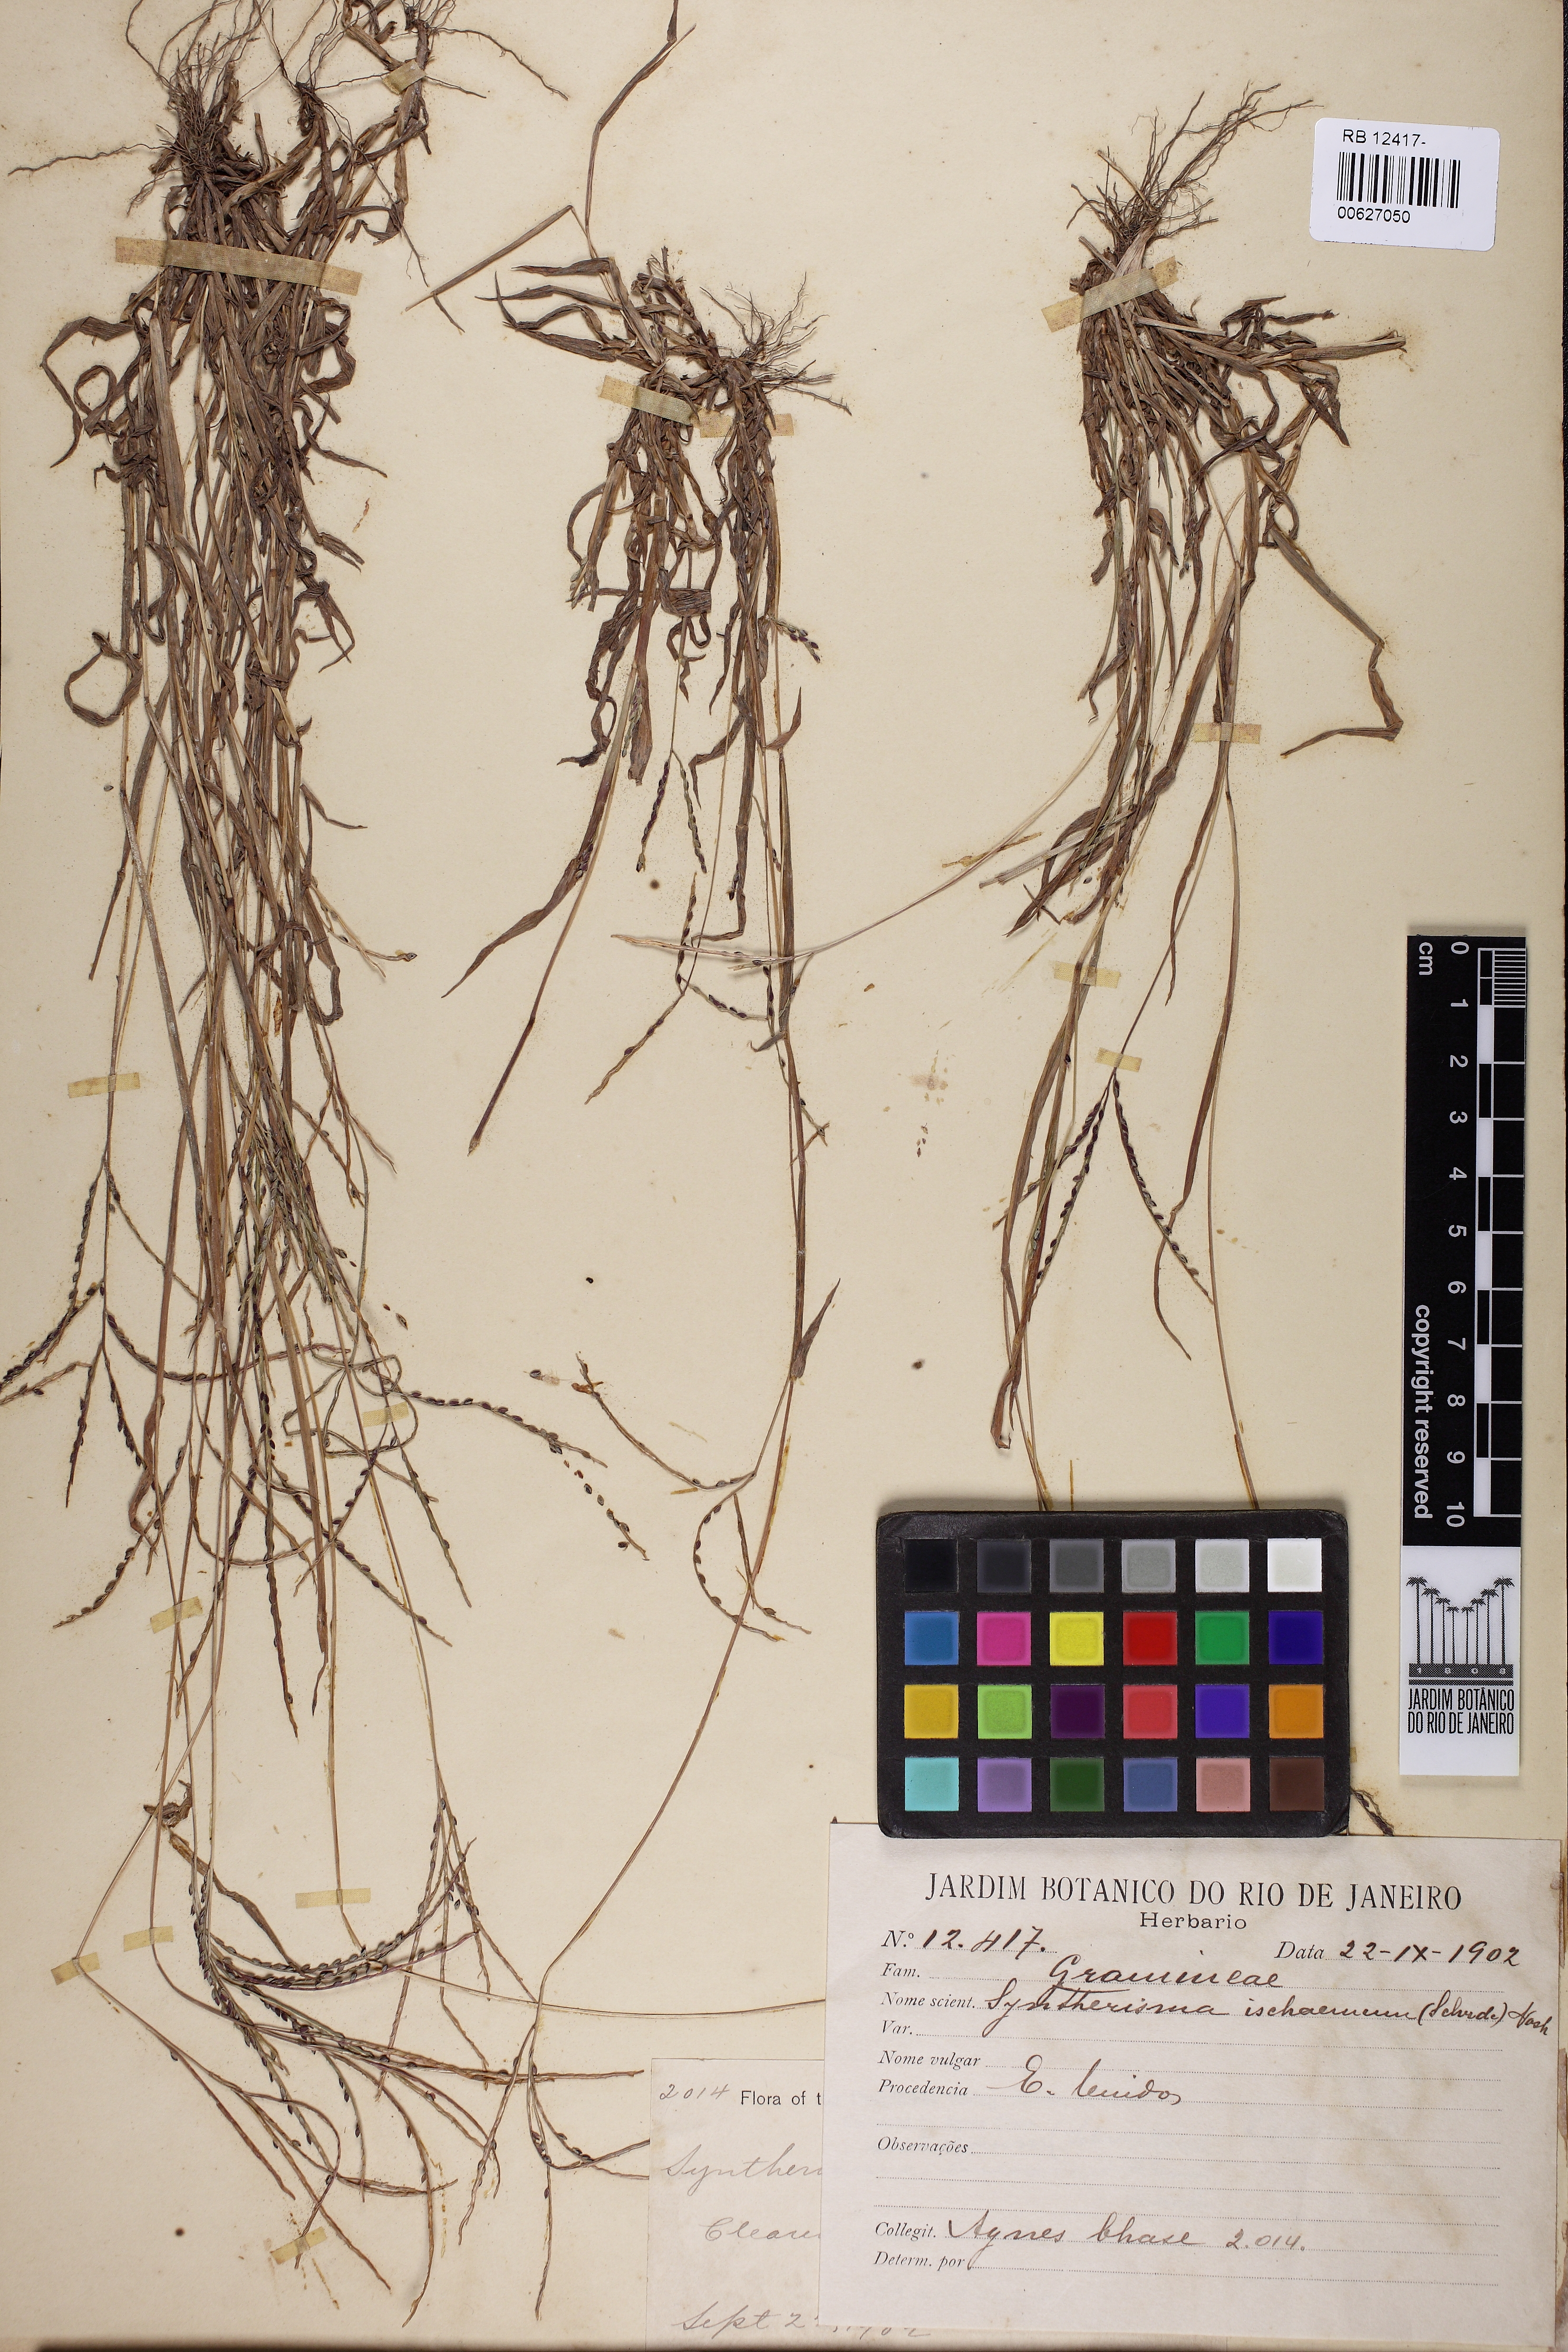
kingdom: Plantae
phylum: Tracheophyta
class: Liliopsida
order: Poales
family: Poaceae
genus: Digitaria
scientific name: Digitaria ischaemum
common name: Smooth crabgrass
